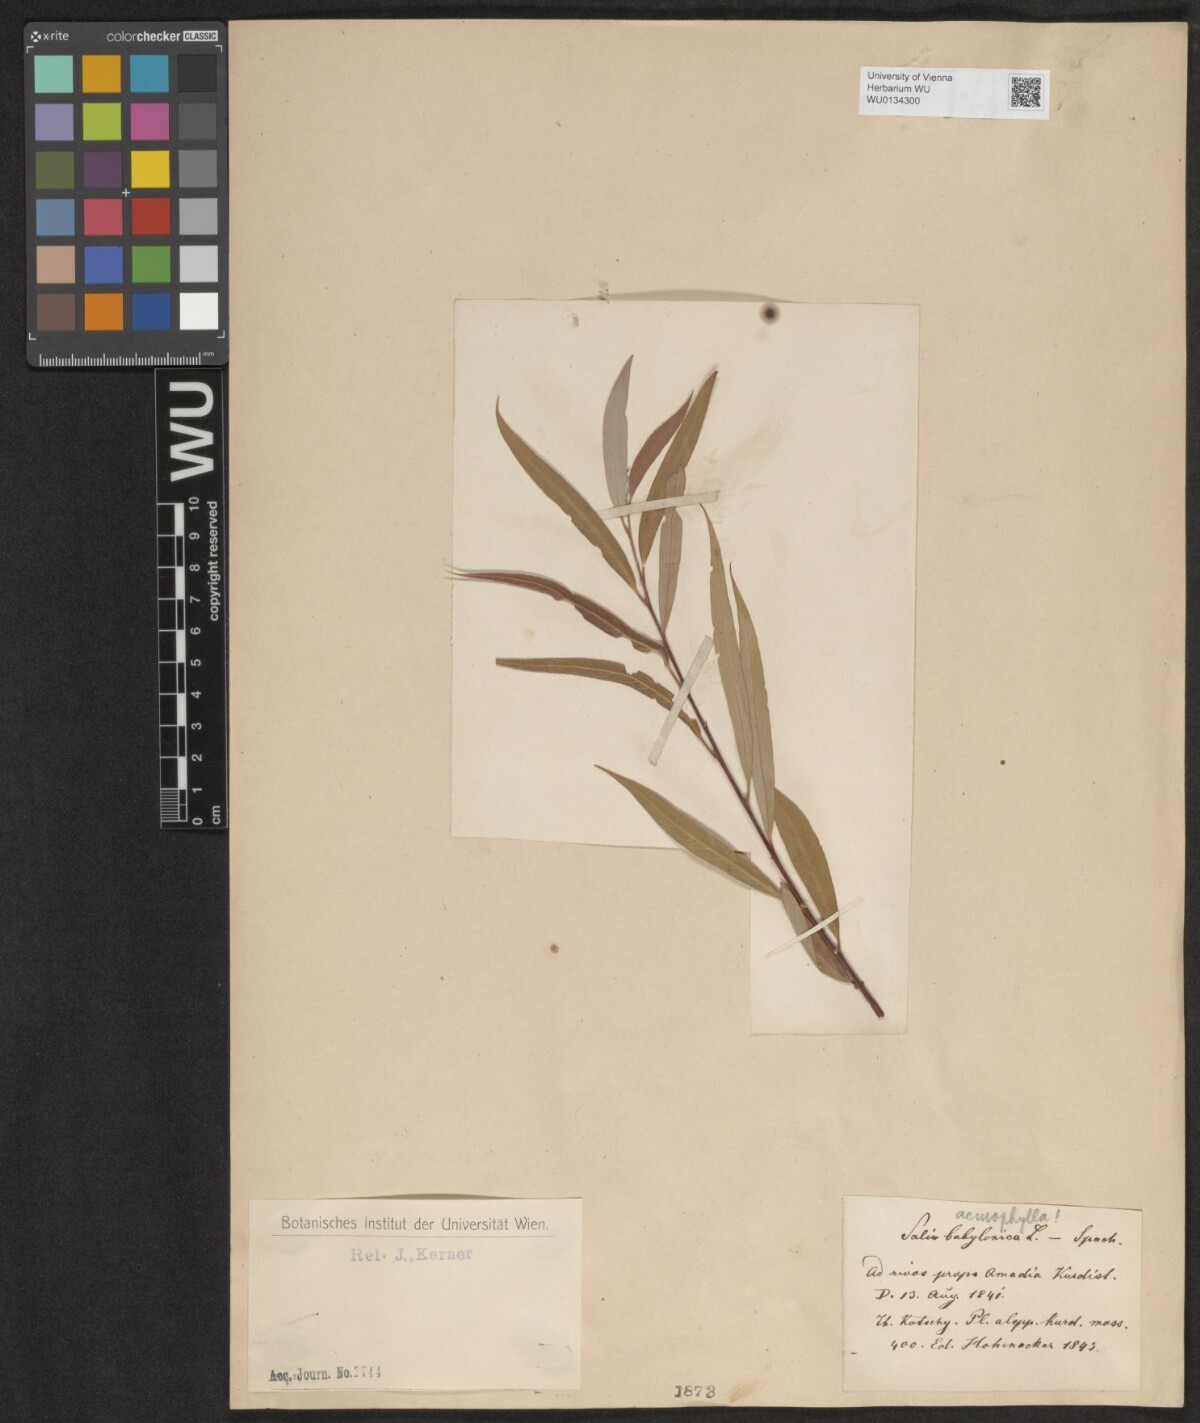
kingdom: Plantae
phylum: Tracheophyta
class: Magnoliopsida
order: Malpighiales
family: Salicaceae
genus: Salix
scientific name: Salix acmophylla
